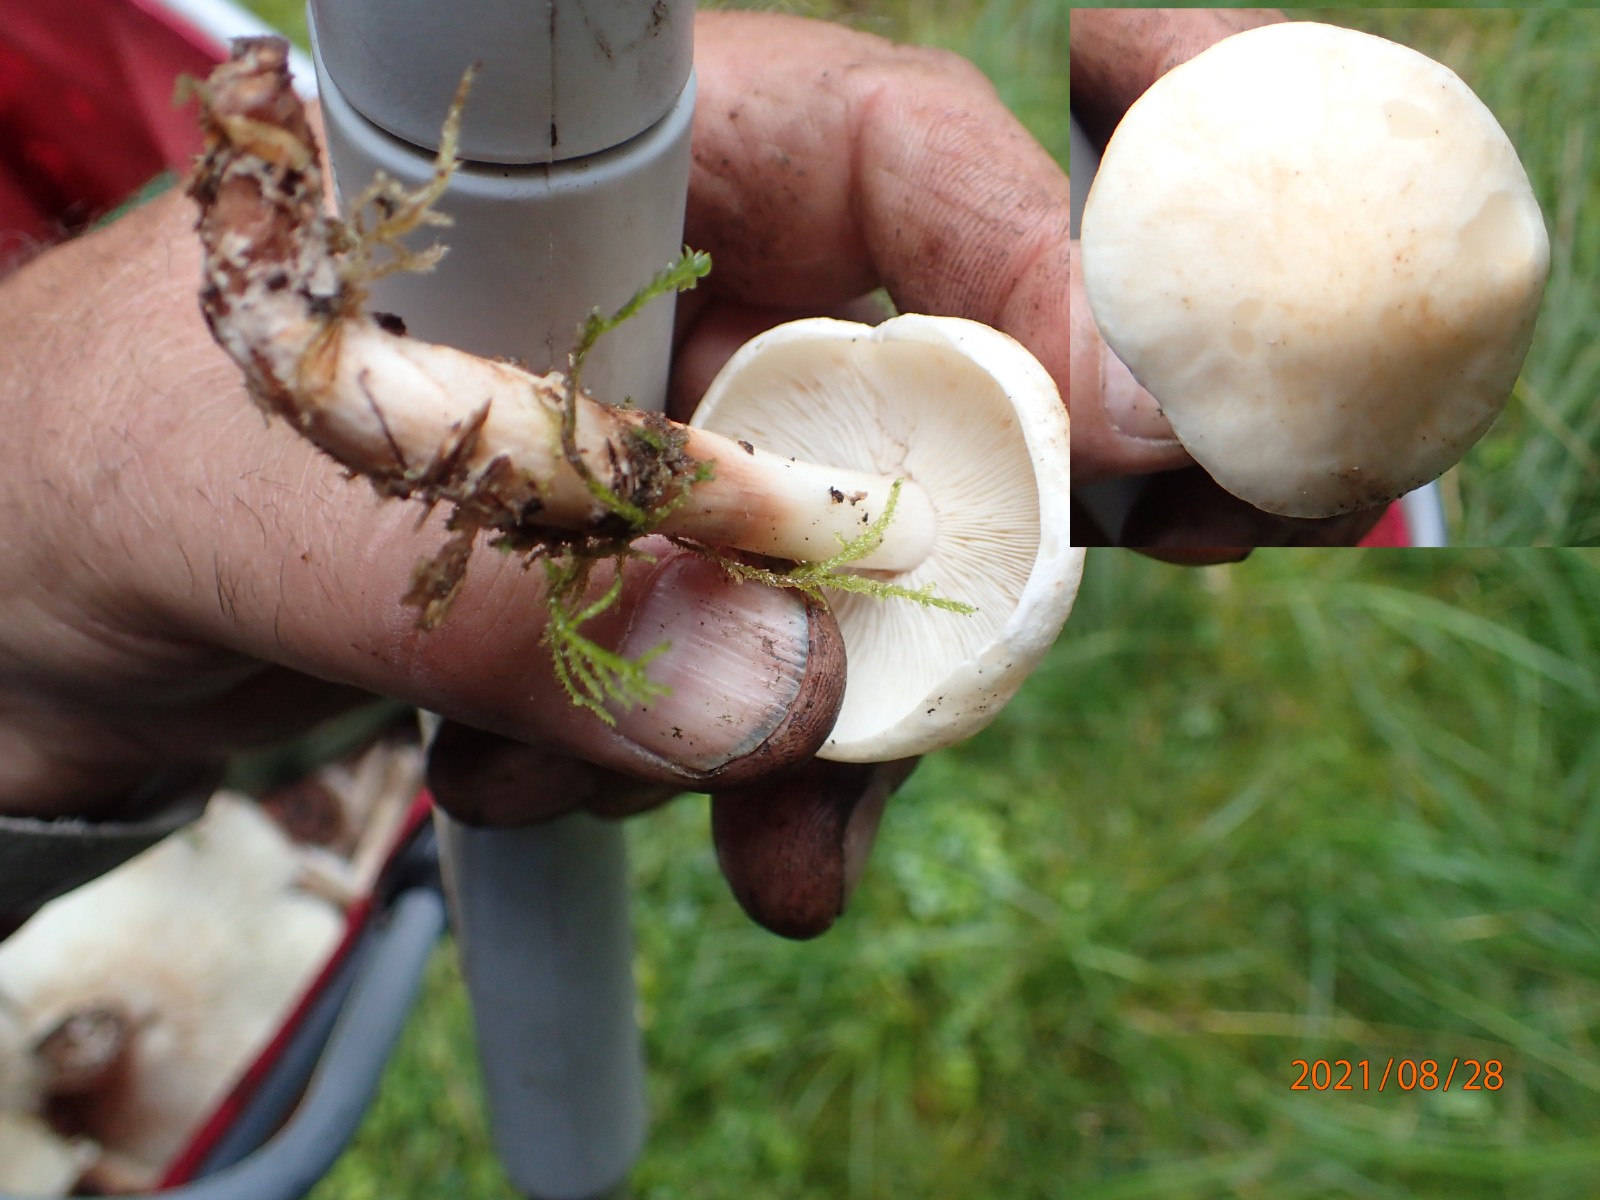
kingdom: Fungi
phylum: Basidiomycota
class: Agaricomycetes
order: Agaricales
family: Omphalotaceae
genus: Rhodocollybia
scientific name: Rhodocollybia maculata
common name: plettet fladhat
